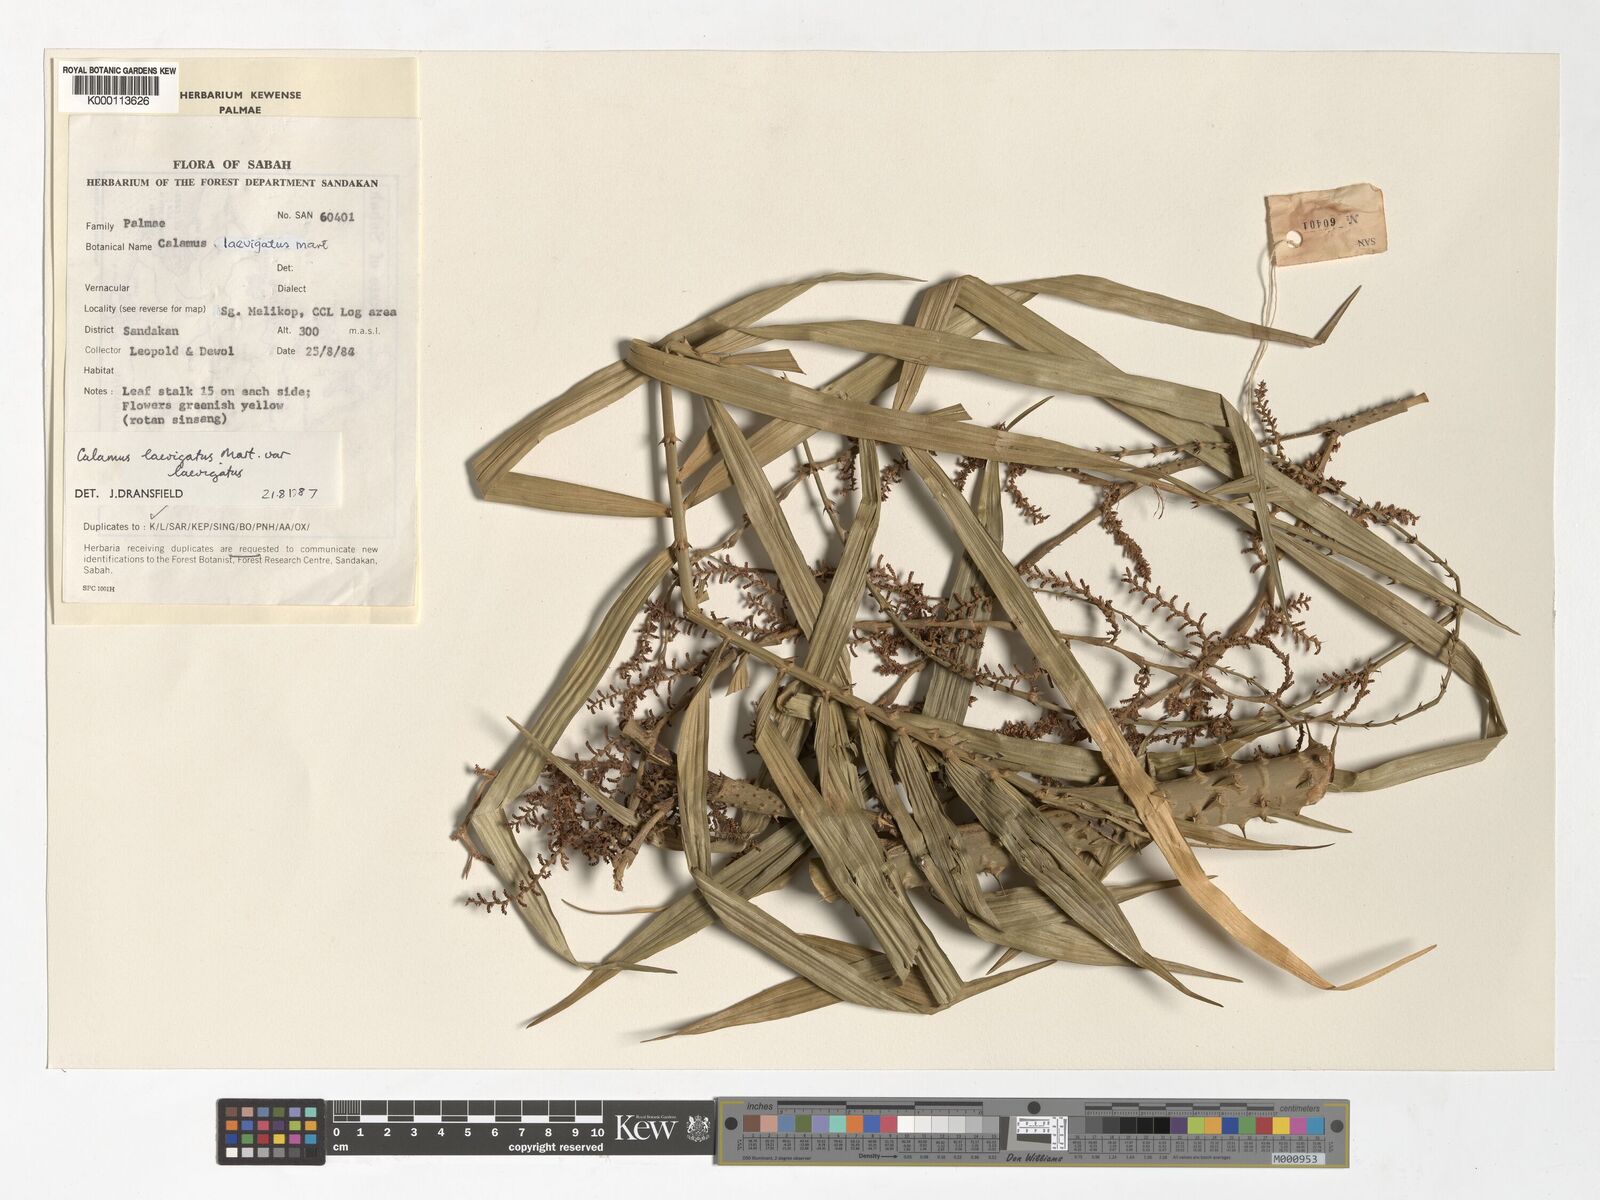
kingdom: Plantae
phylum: Tracheophyta
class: Liliopsida
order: Arecales
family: Arecaceae
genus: Calamus
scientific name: Calamus
